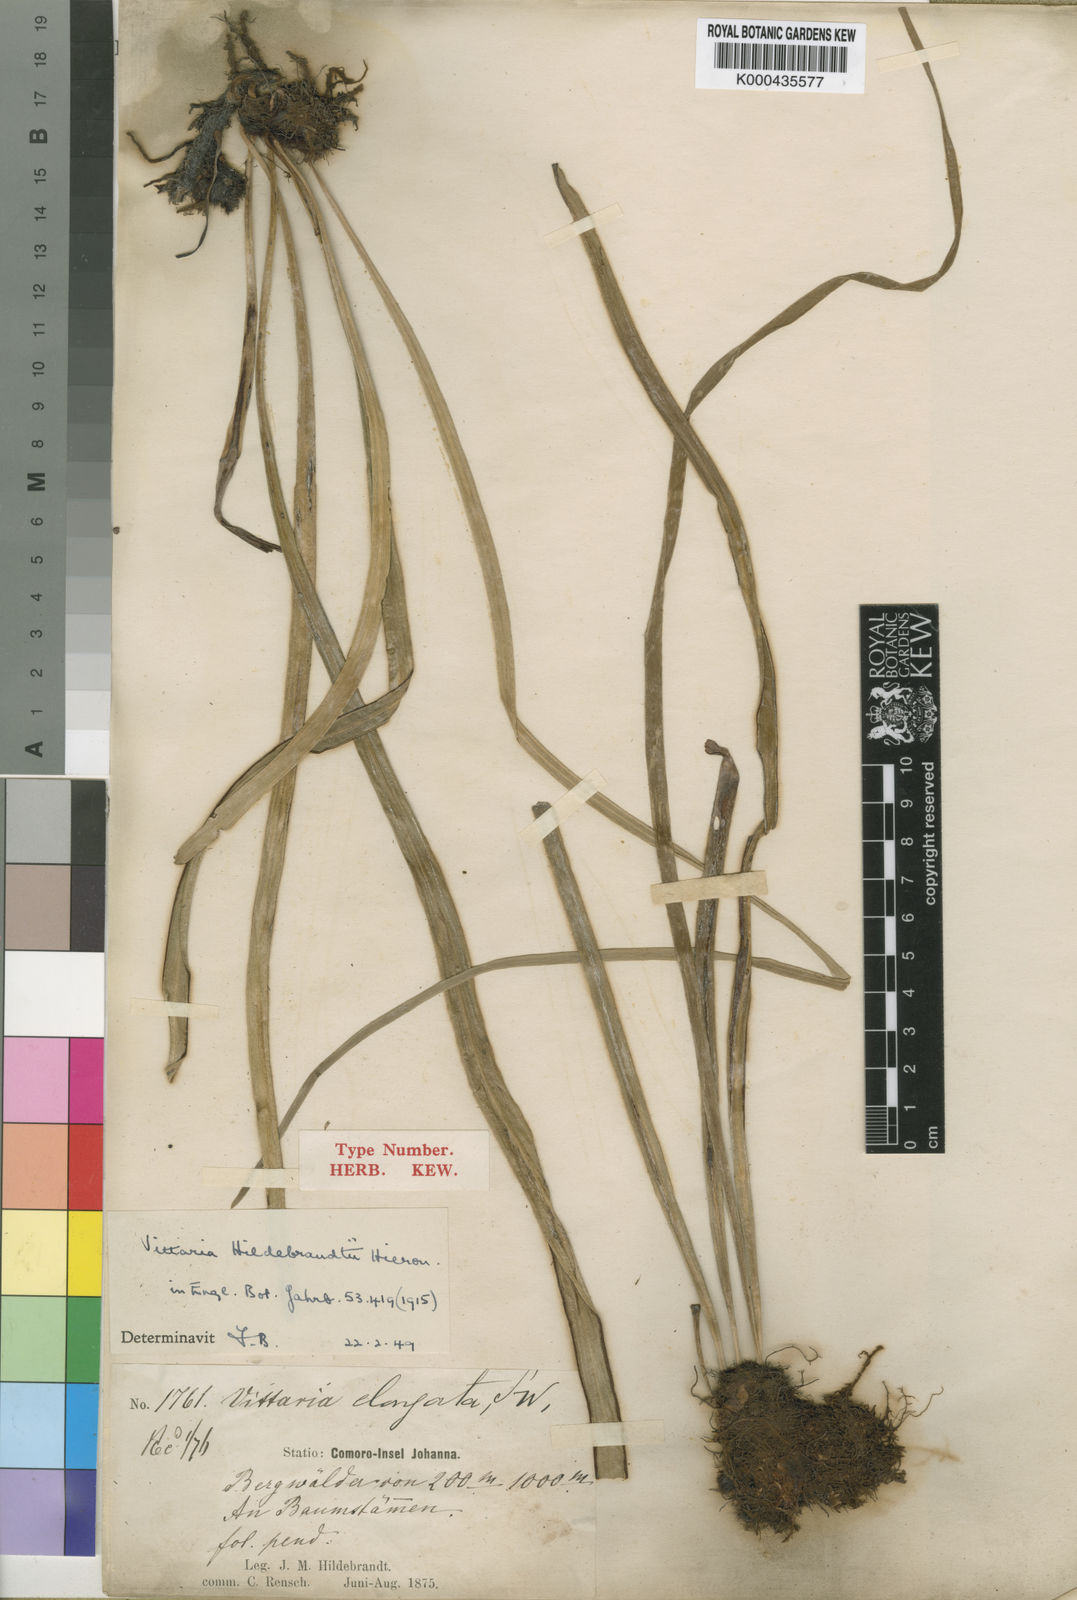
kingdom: Plantae
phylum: Tracheophyta
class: Polypodiopsida
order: Polypodiales
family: Pteridaceae
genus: Haplopteris
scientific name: Haplopteris elongata
